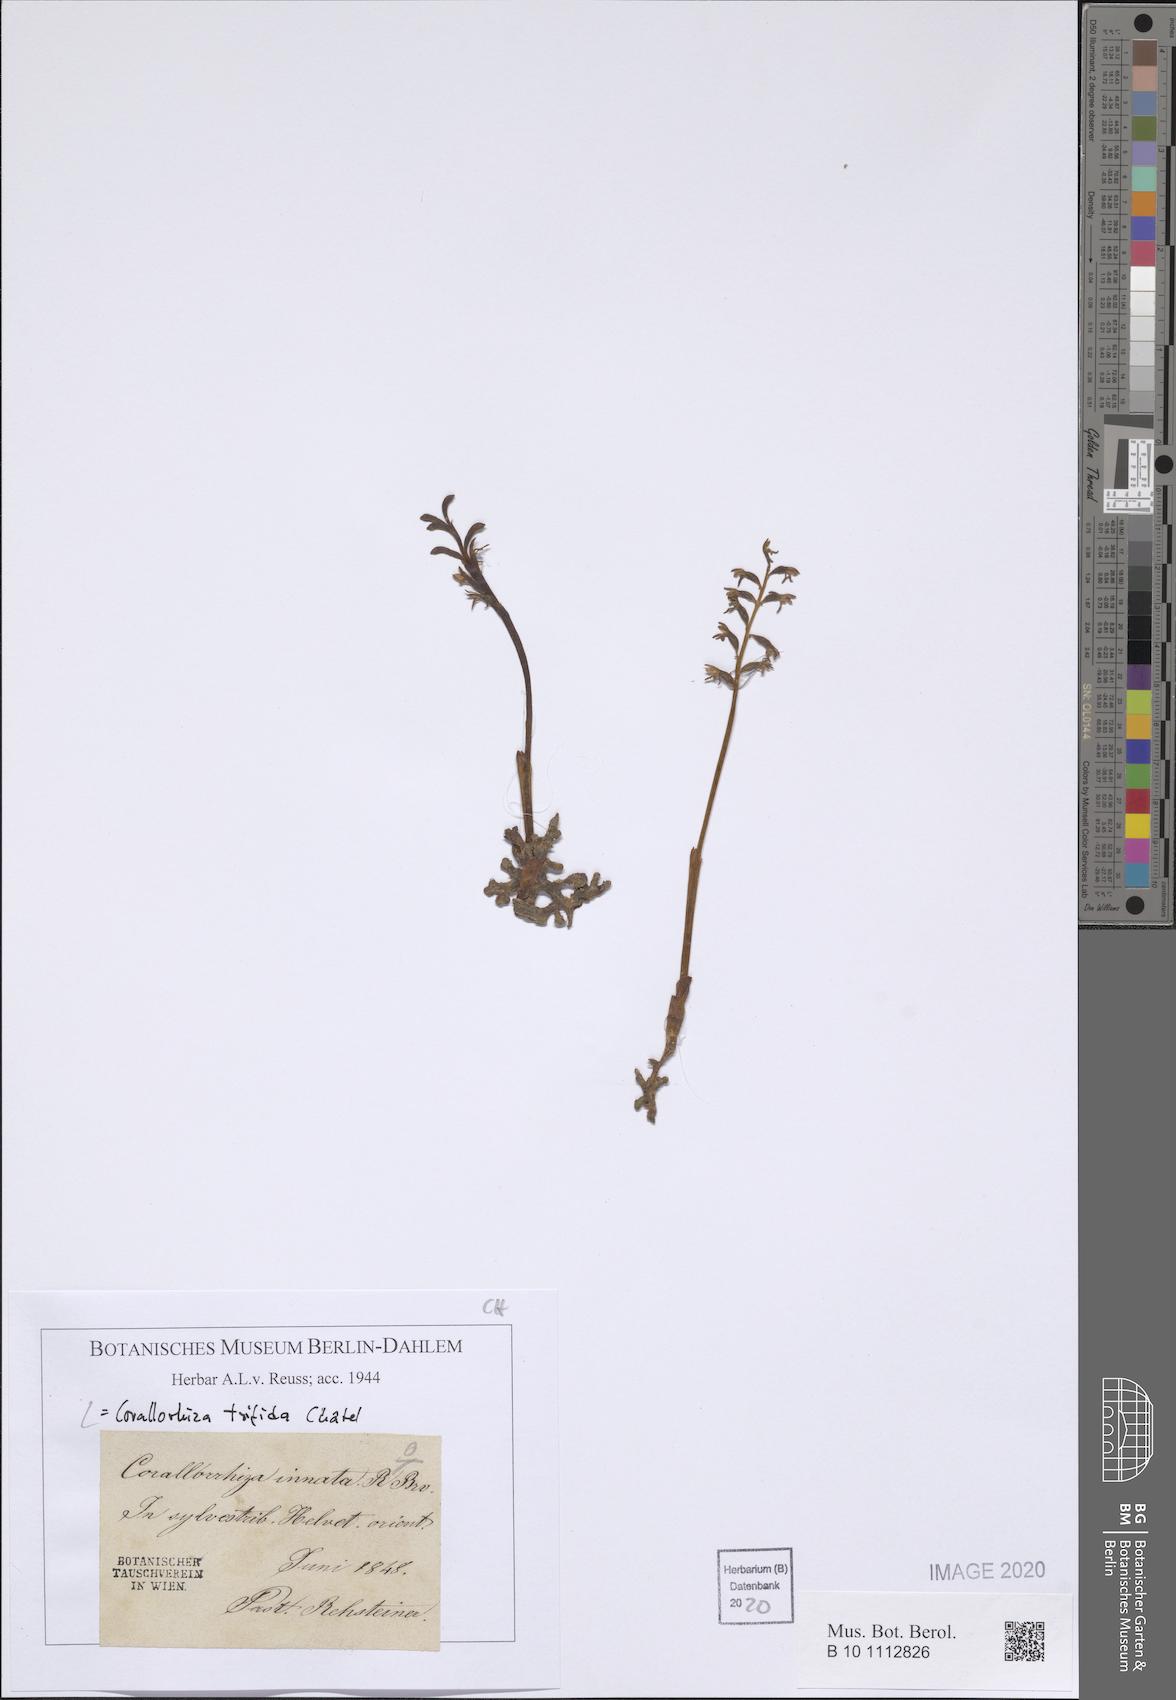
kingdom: Plantae
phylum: Tracheophyta
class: Liliopsida
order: Asparagales
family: Orchidaceae
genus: Corallorhiza
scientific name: Corallorhiza trifida
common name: Yellow coralroot
